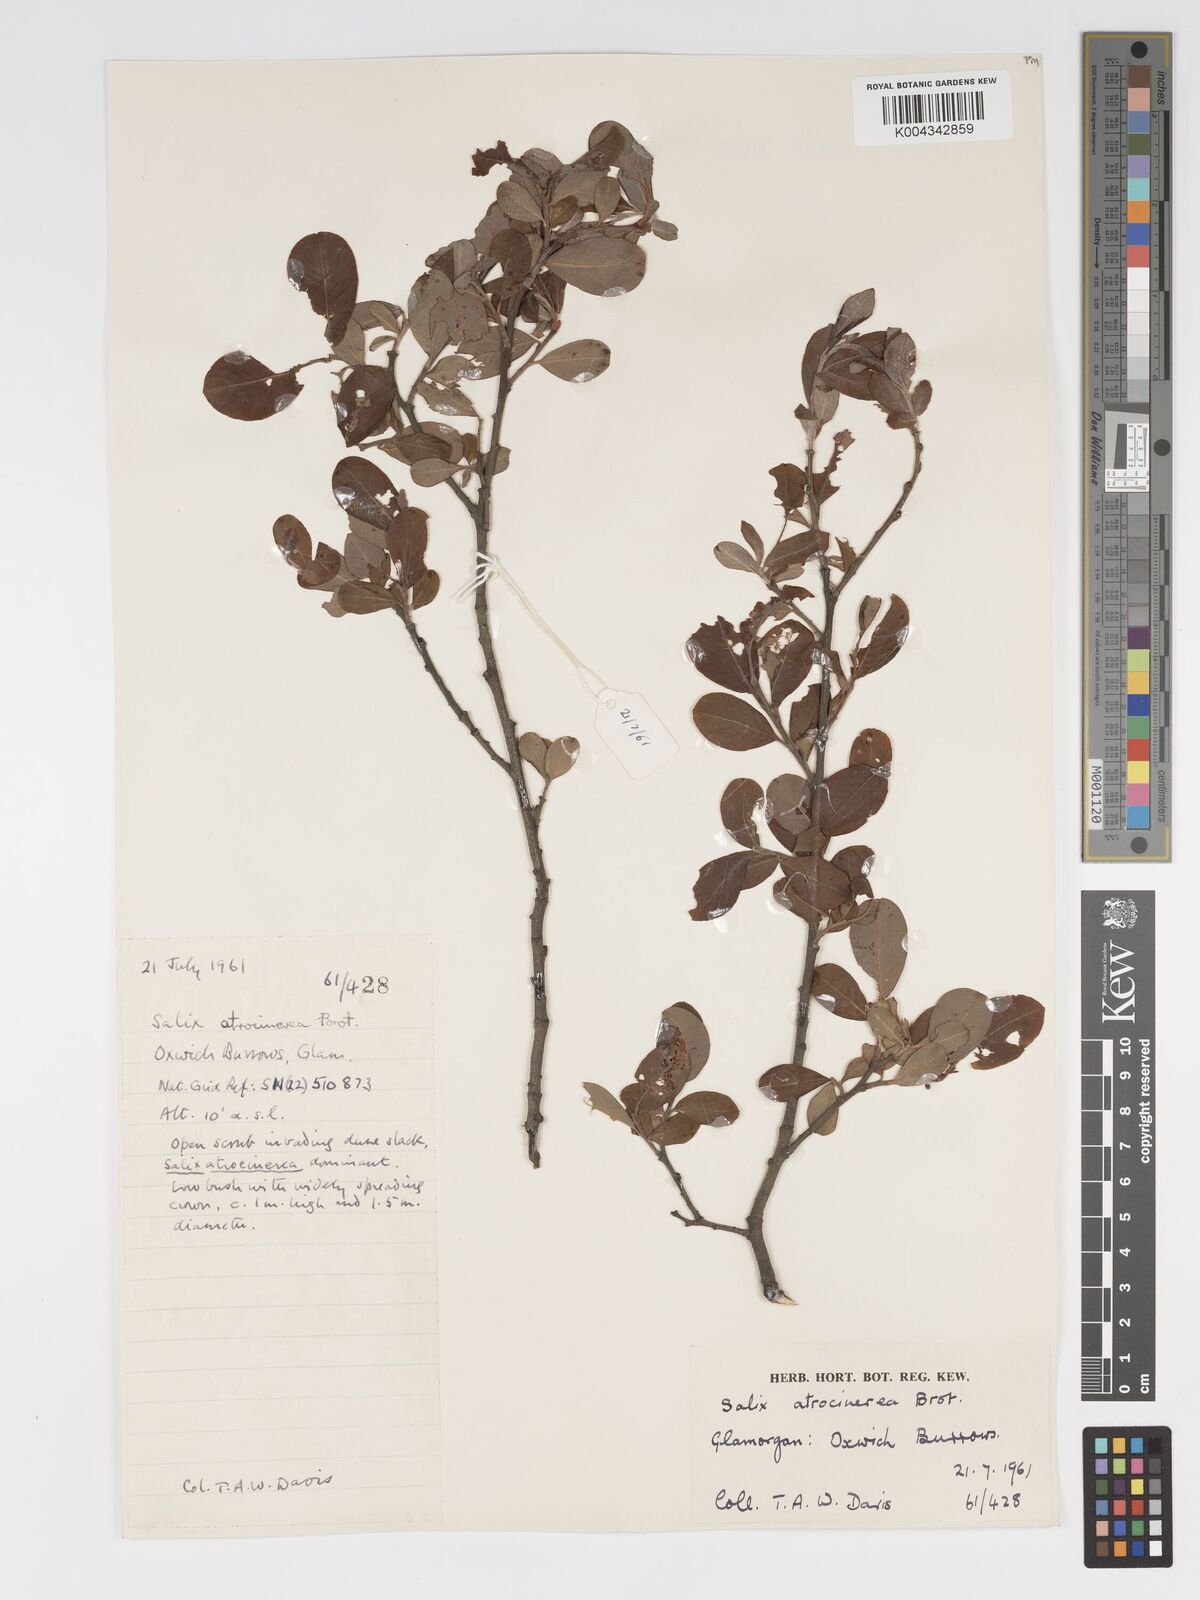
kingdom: Plantae
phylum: Tracheophyta
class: Magnoliopsida
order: Malpighiales
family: Salicaceae
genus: Salix
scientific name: Salix atrocinerea
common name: Rusty willow
